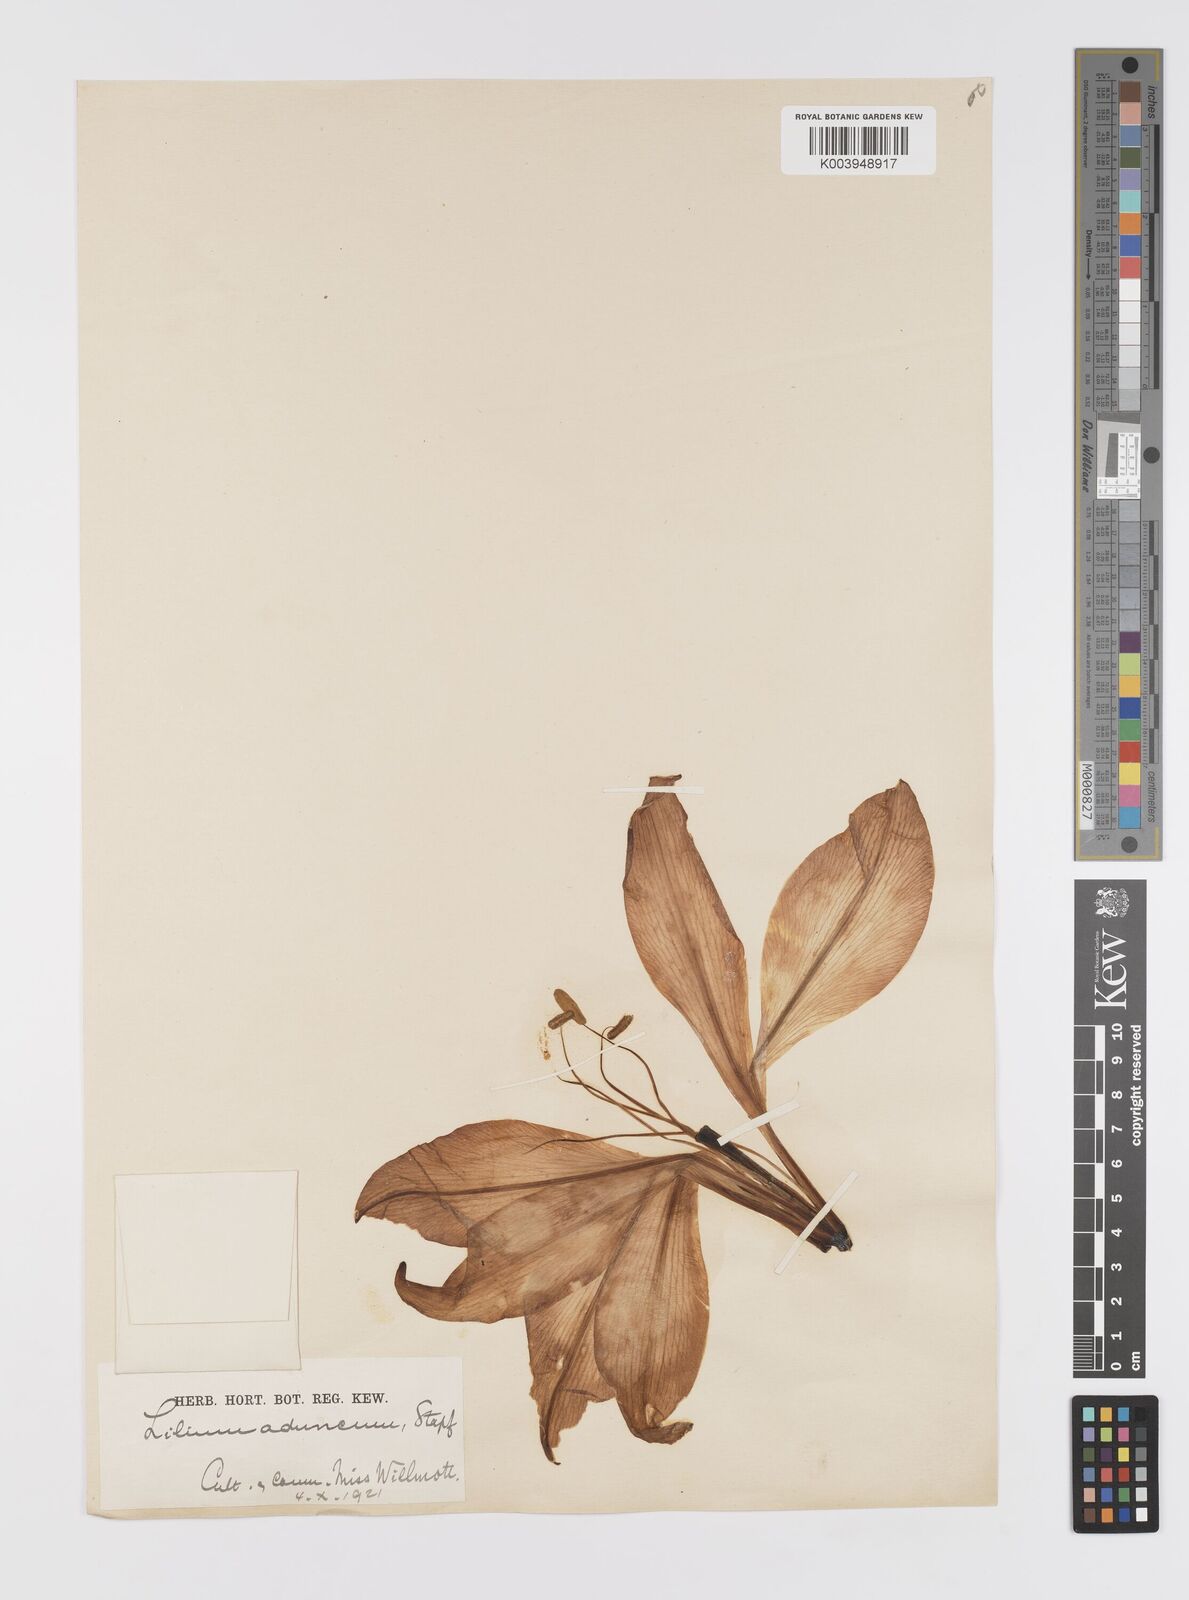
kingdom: Plantae
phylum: Tracheophyta
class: Liliopsida
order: Liliales
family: Liliaceae
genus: Lilium
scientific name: Lilium brownii
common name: Brown's lily
